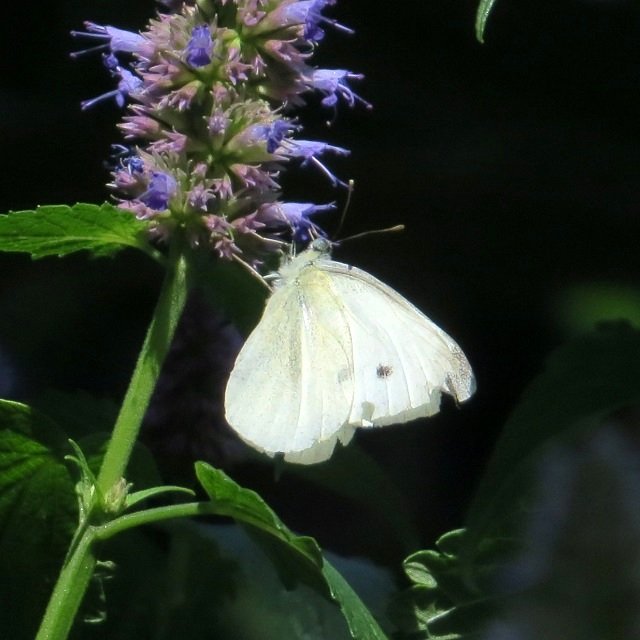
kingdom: Animalia
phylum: Arthropoda
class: Insecta
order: Lepidoptera
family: Pieridae
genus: Pieris
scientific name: Pieris rapae
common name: Cabbage White
